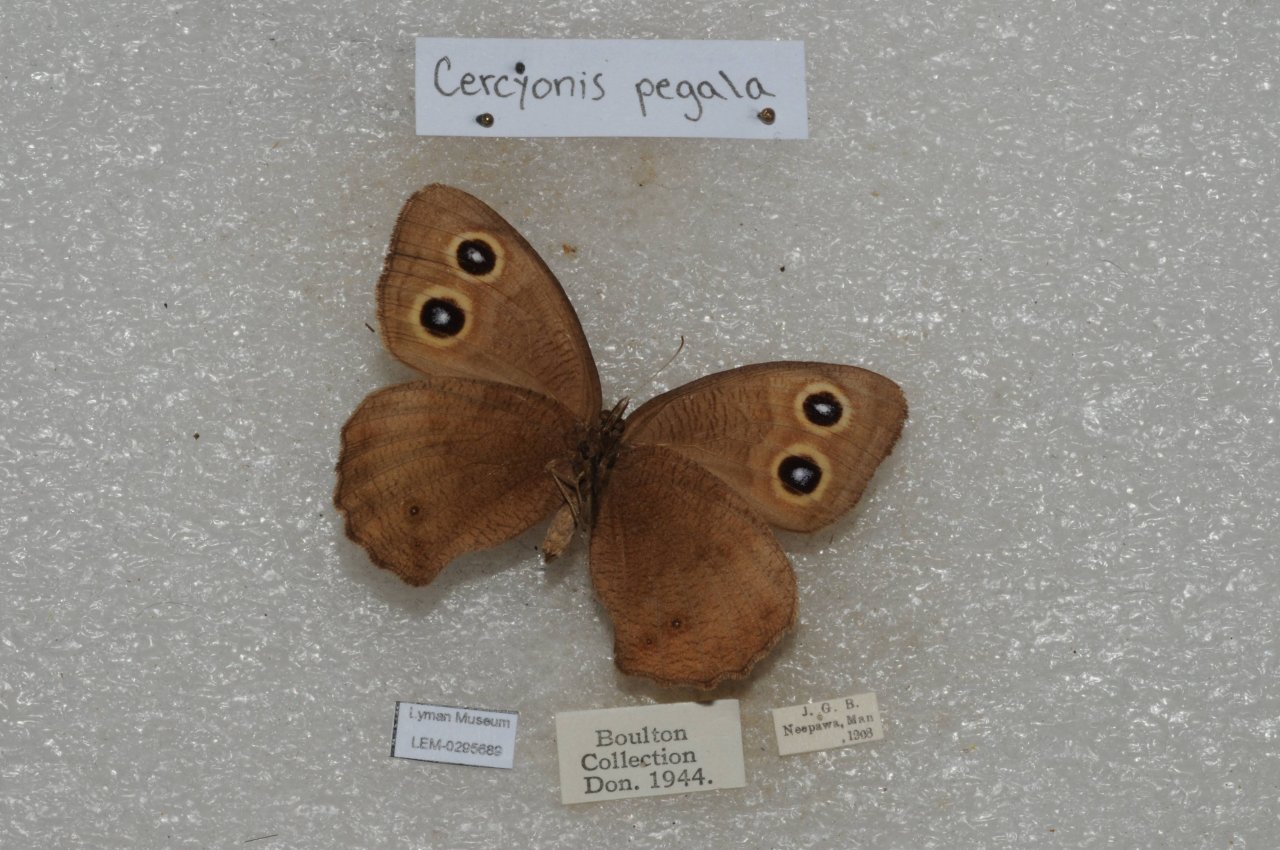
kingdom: Animalia
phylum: Arthropoda
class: Insecta
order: Lepidoptera
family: Nymphalidae
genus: Cercyonis
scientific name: Cercyonis pegala
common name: Common Wood-Nymph
